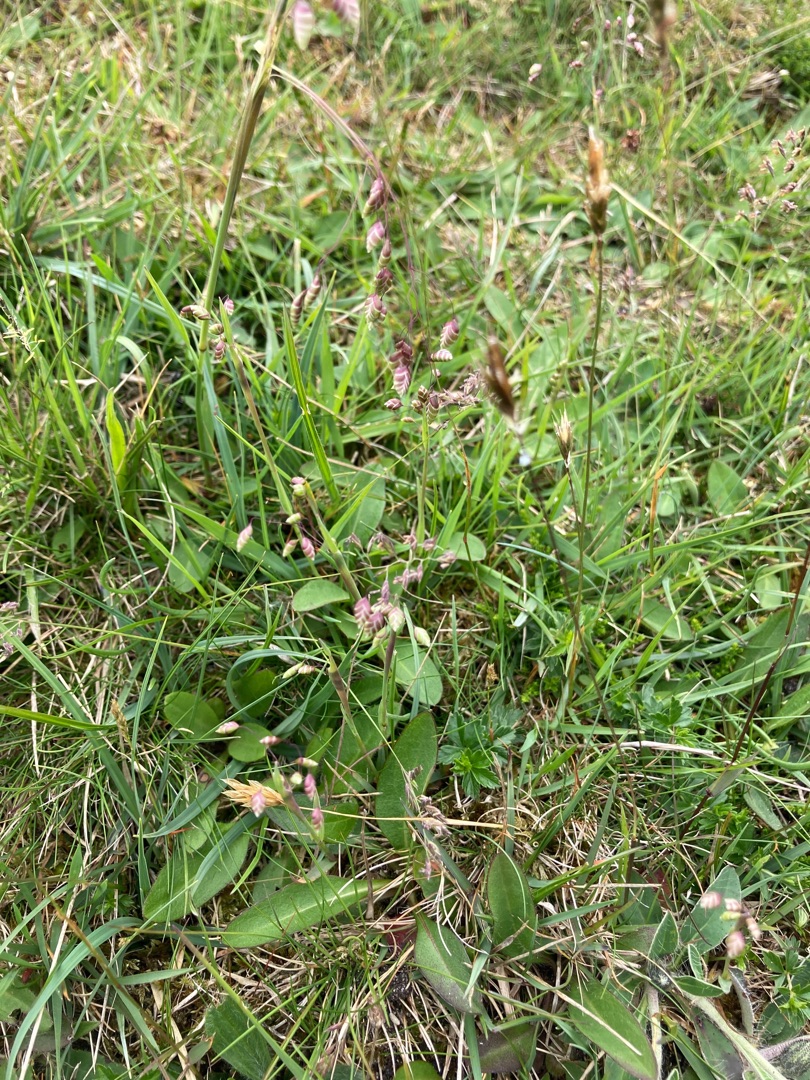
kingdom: Plantae
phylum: Tracheophyta
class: Liliopsida
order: Poales
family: Poaceae
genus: Briza
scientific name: Briza media
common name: Hjertegræs
